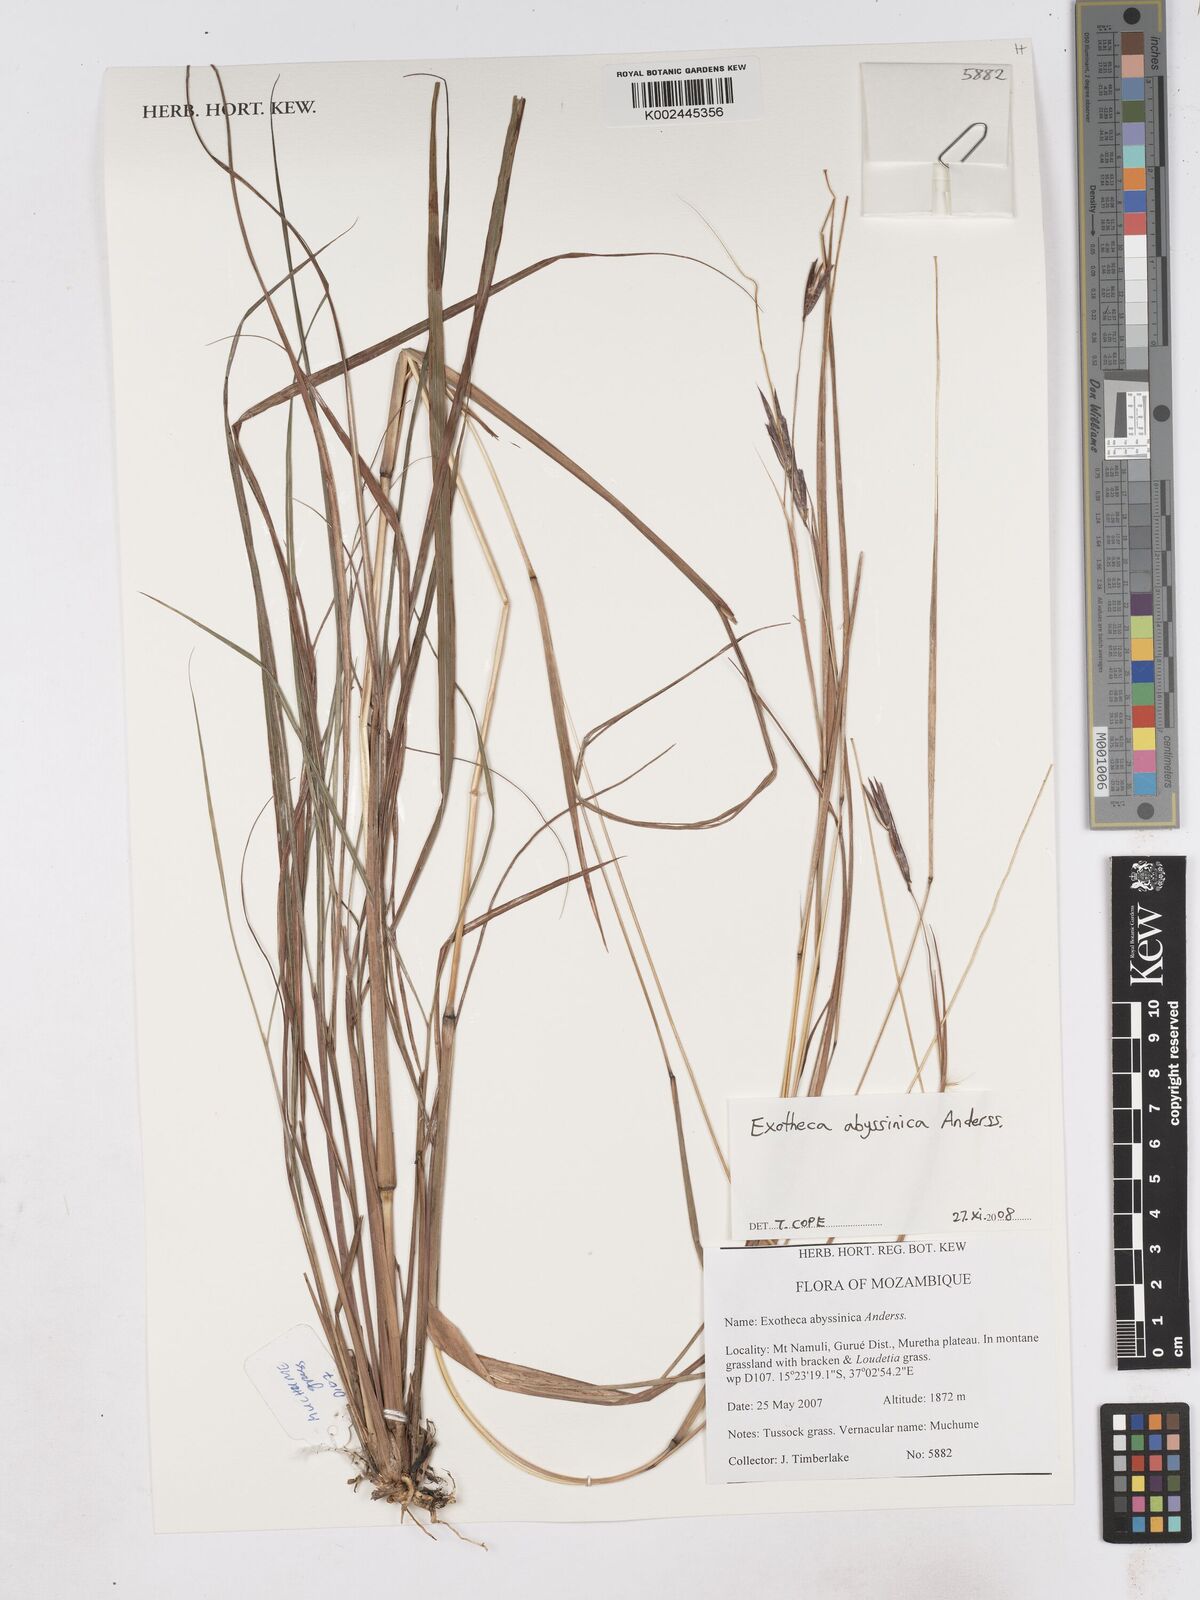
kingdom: Plantae
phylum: Tracheophyta
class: Liliopsida
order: Poales
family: Poaceae
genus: Exotheca
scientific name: Exotheca abyssinica
